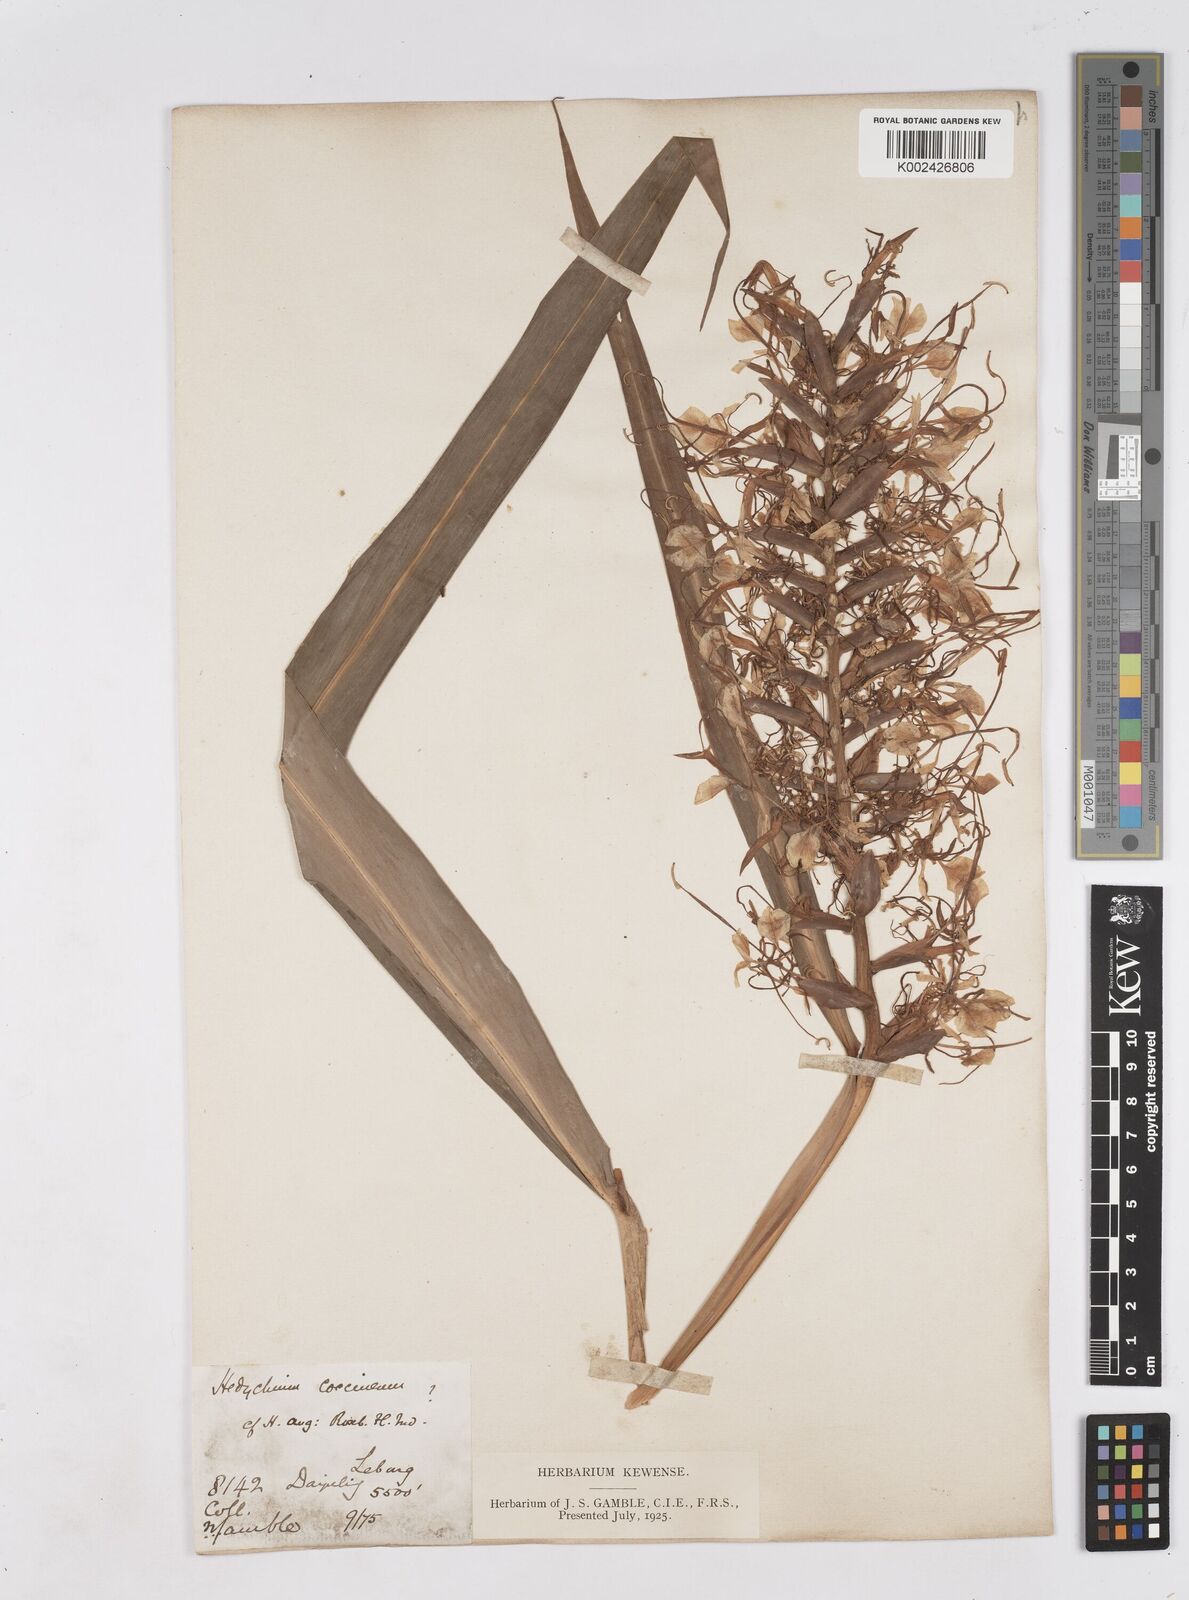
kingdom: Plantae
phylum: Tracheophyta
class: Liliopsida
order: Zingiberales
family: Zingiberaceae
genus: Hedychium
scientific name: Hedychium coccineum
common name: Red ginger-lily
